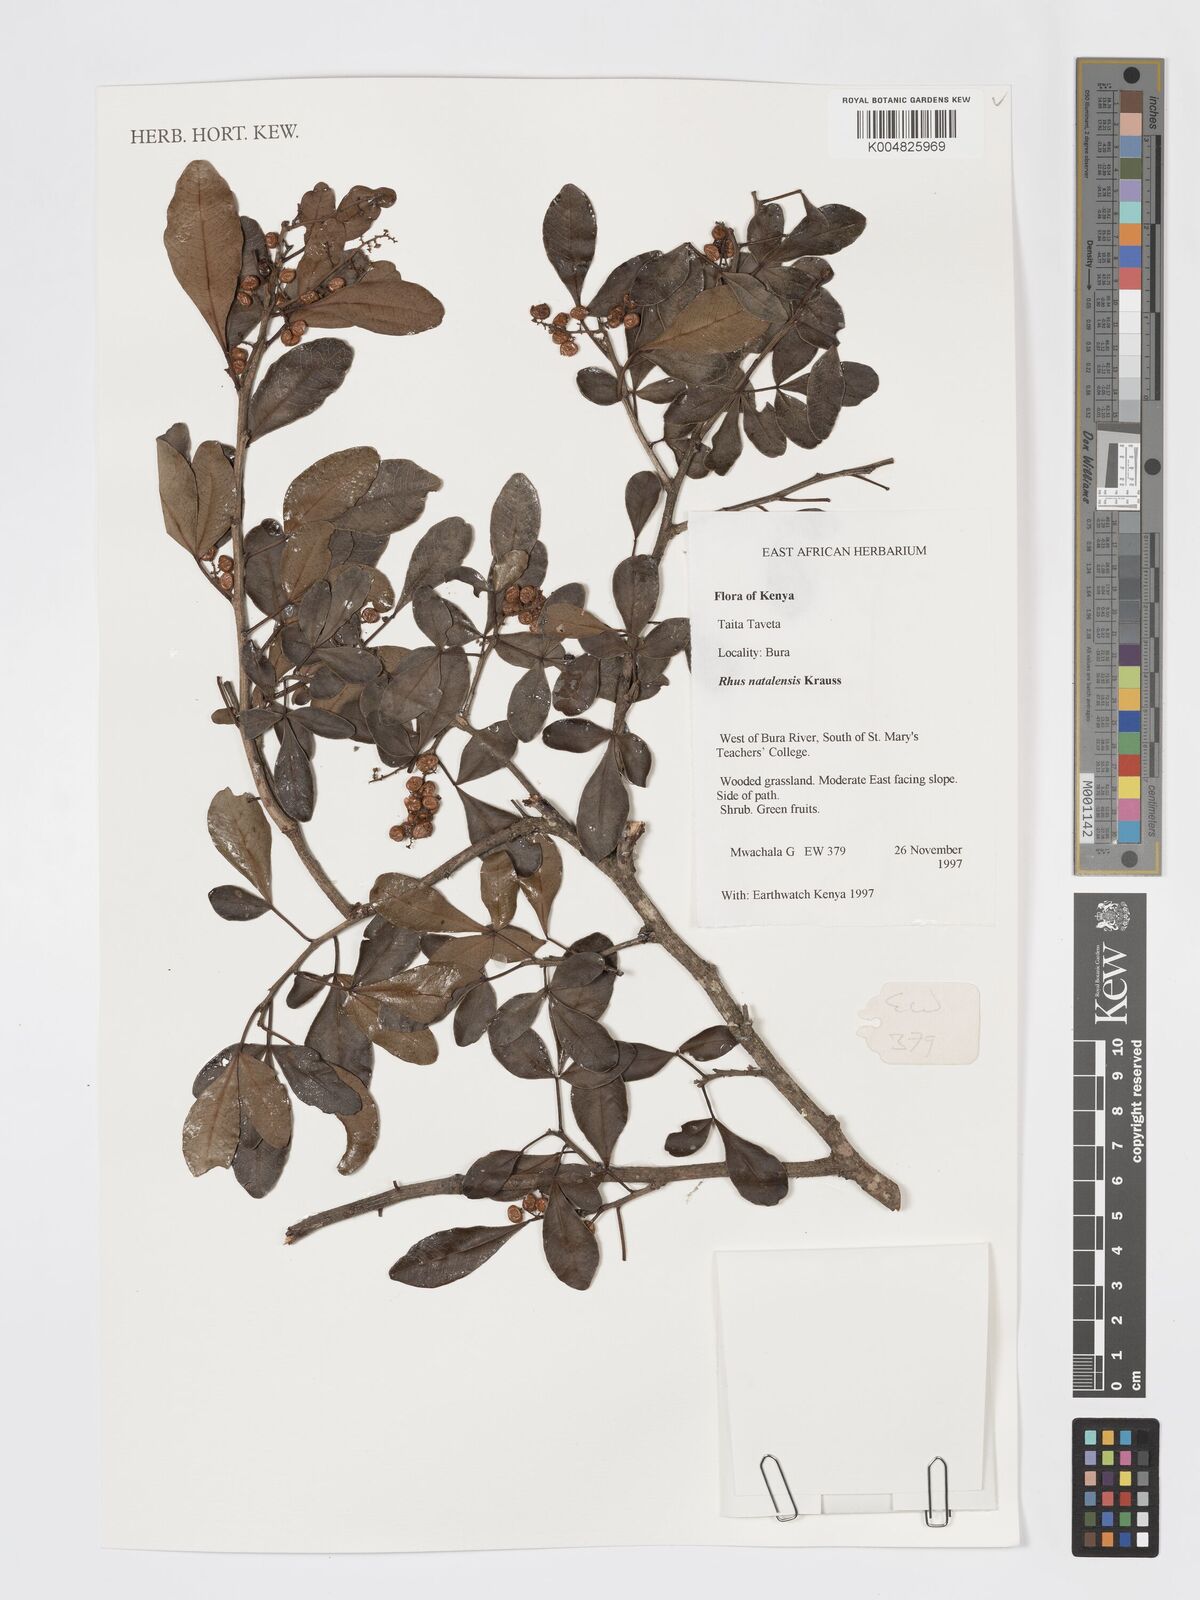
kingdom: Plantae
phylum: Tracheophyta
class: Magnoliopsida
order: Sapindales
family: Anacardiaceae
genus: Searsia
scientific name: Searsia natalensis
